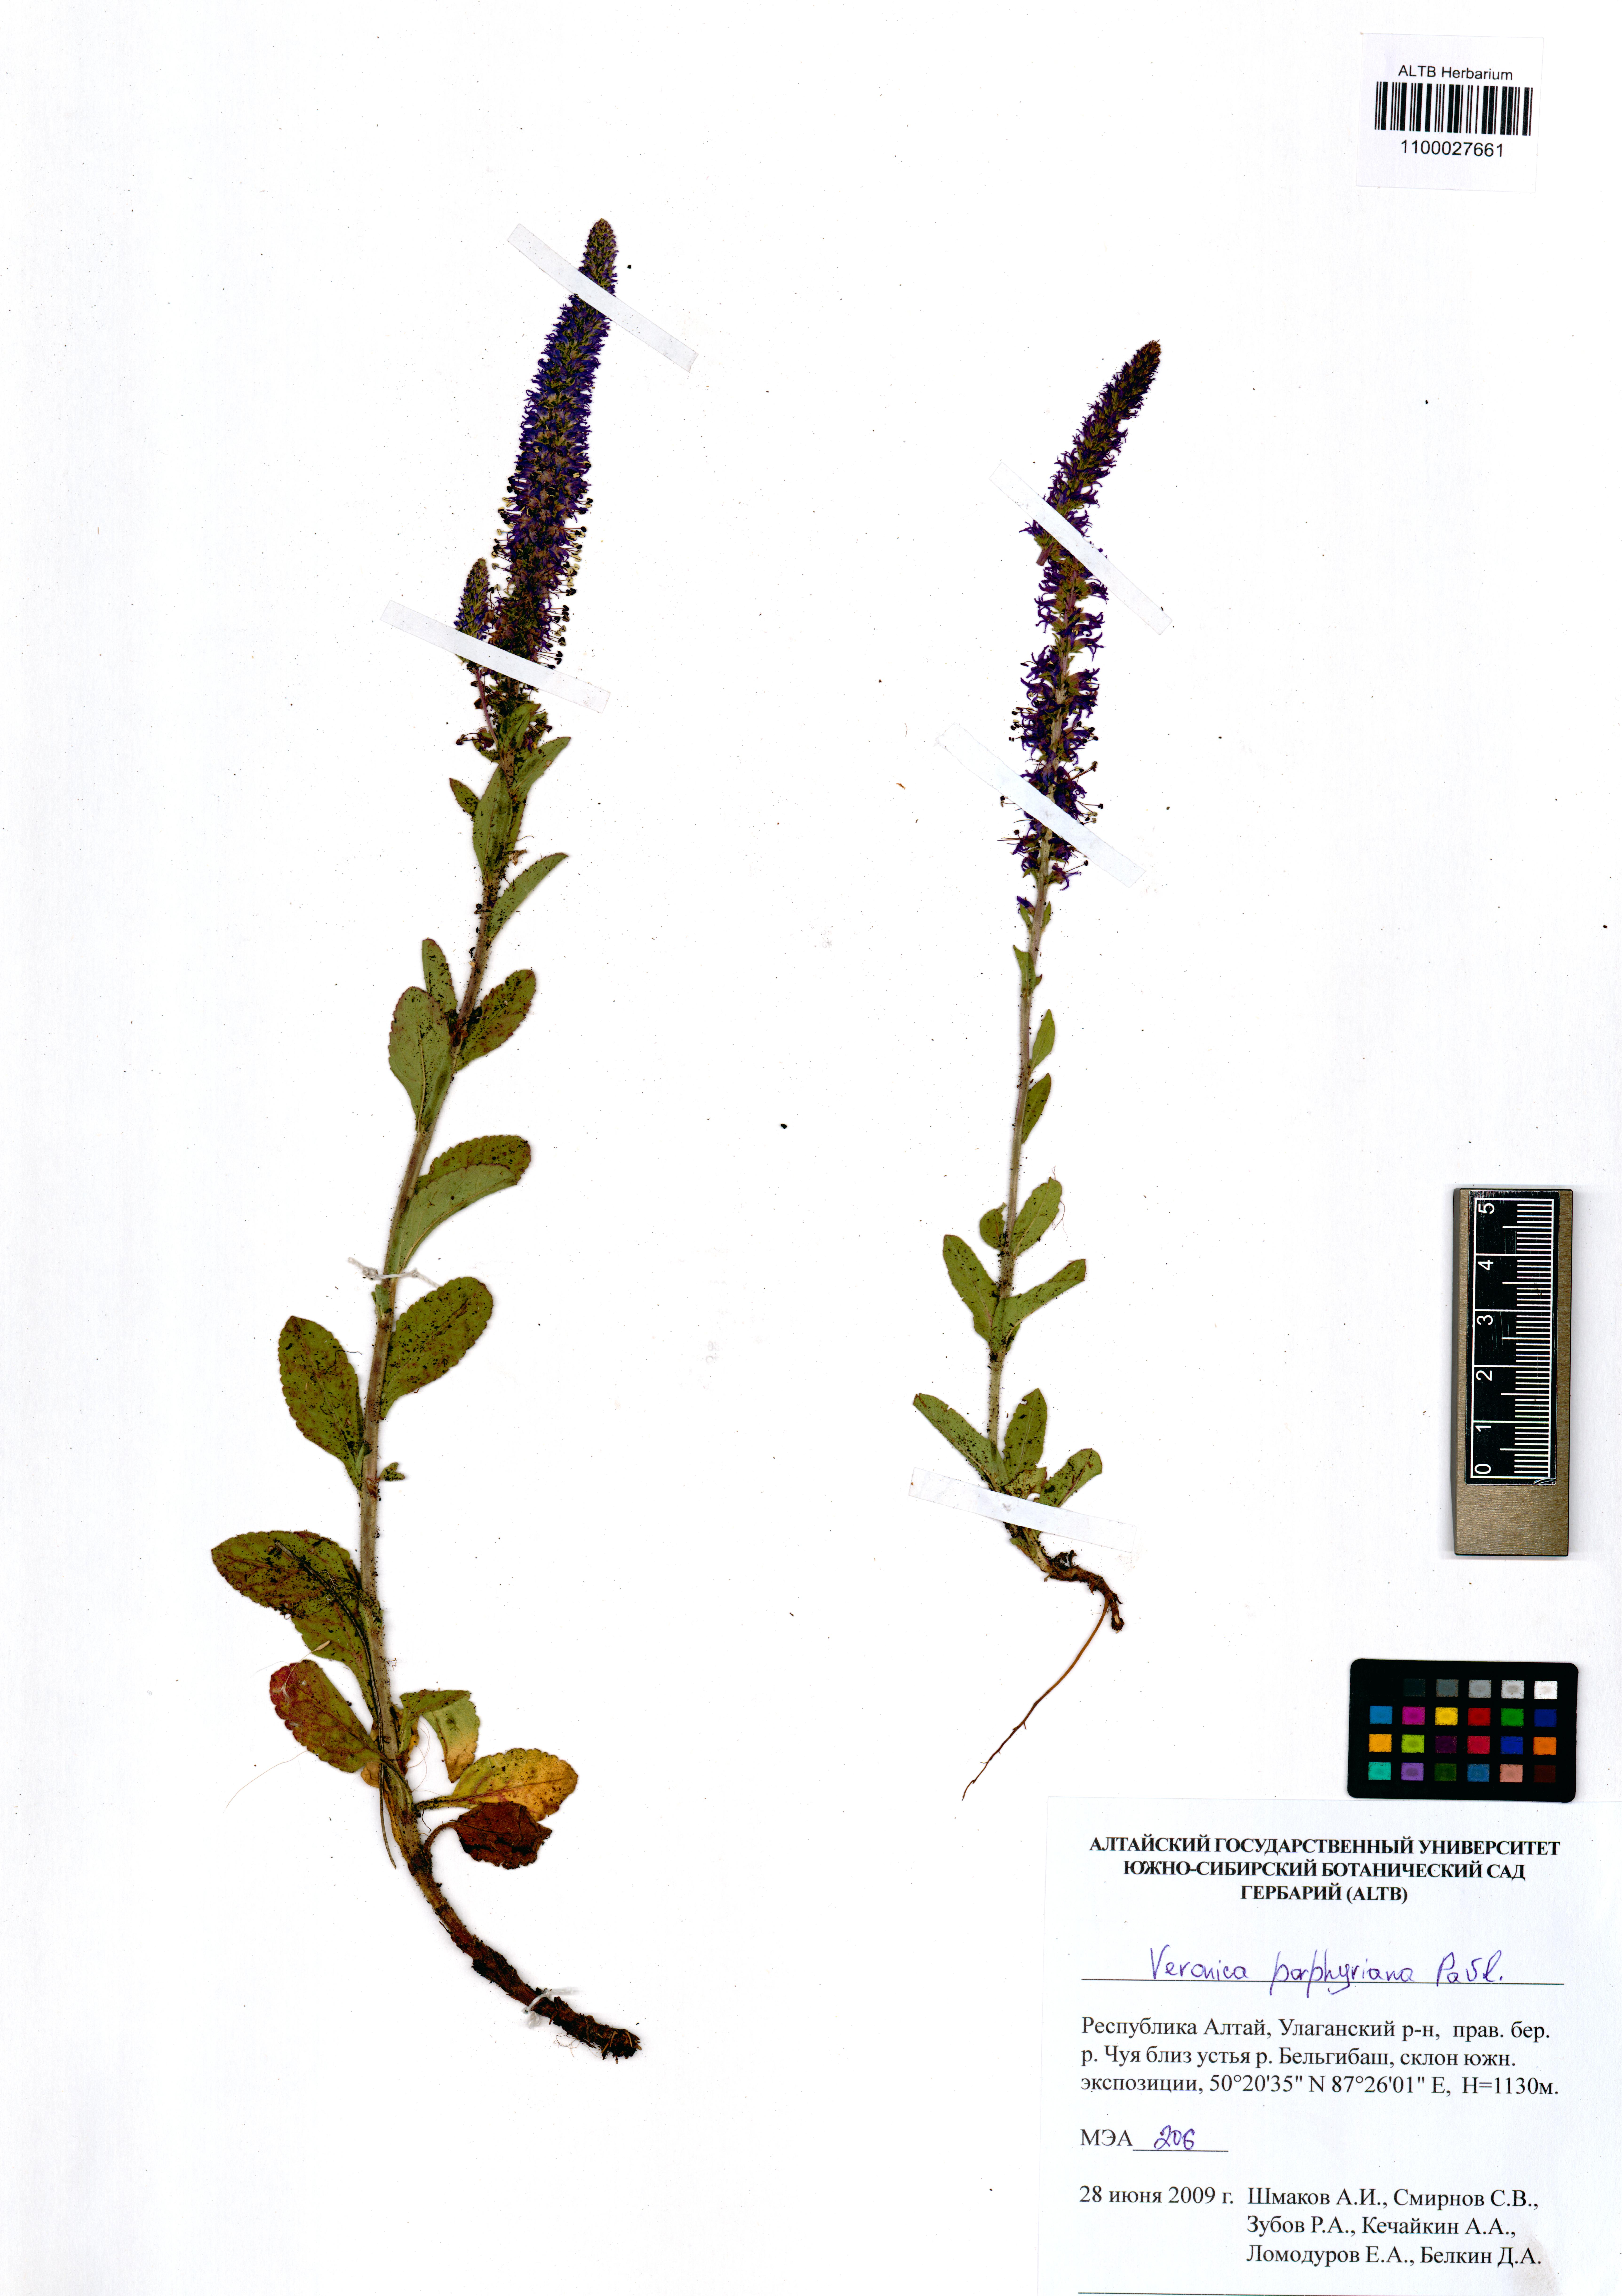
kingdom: Plantae
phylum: Tracheophyta
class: Magnoliopsida
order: Lamiales
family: Plantaginaceae
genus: Veronica
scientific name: Veronica porphyriana
